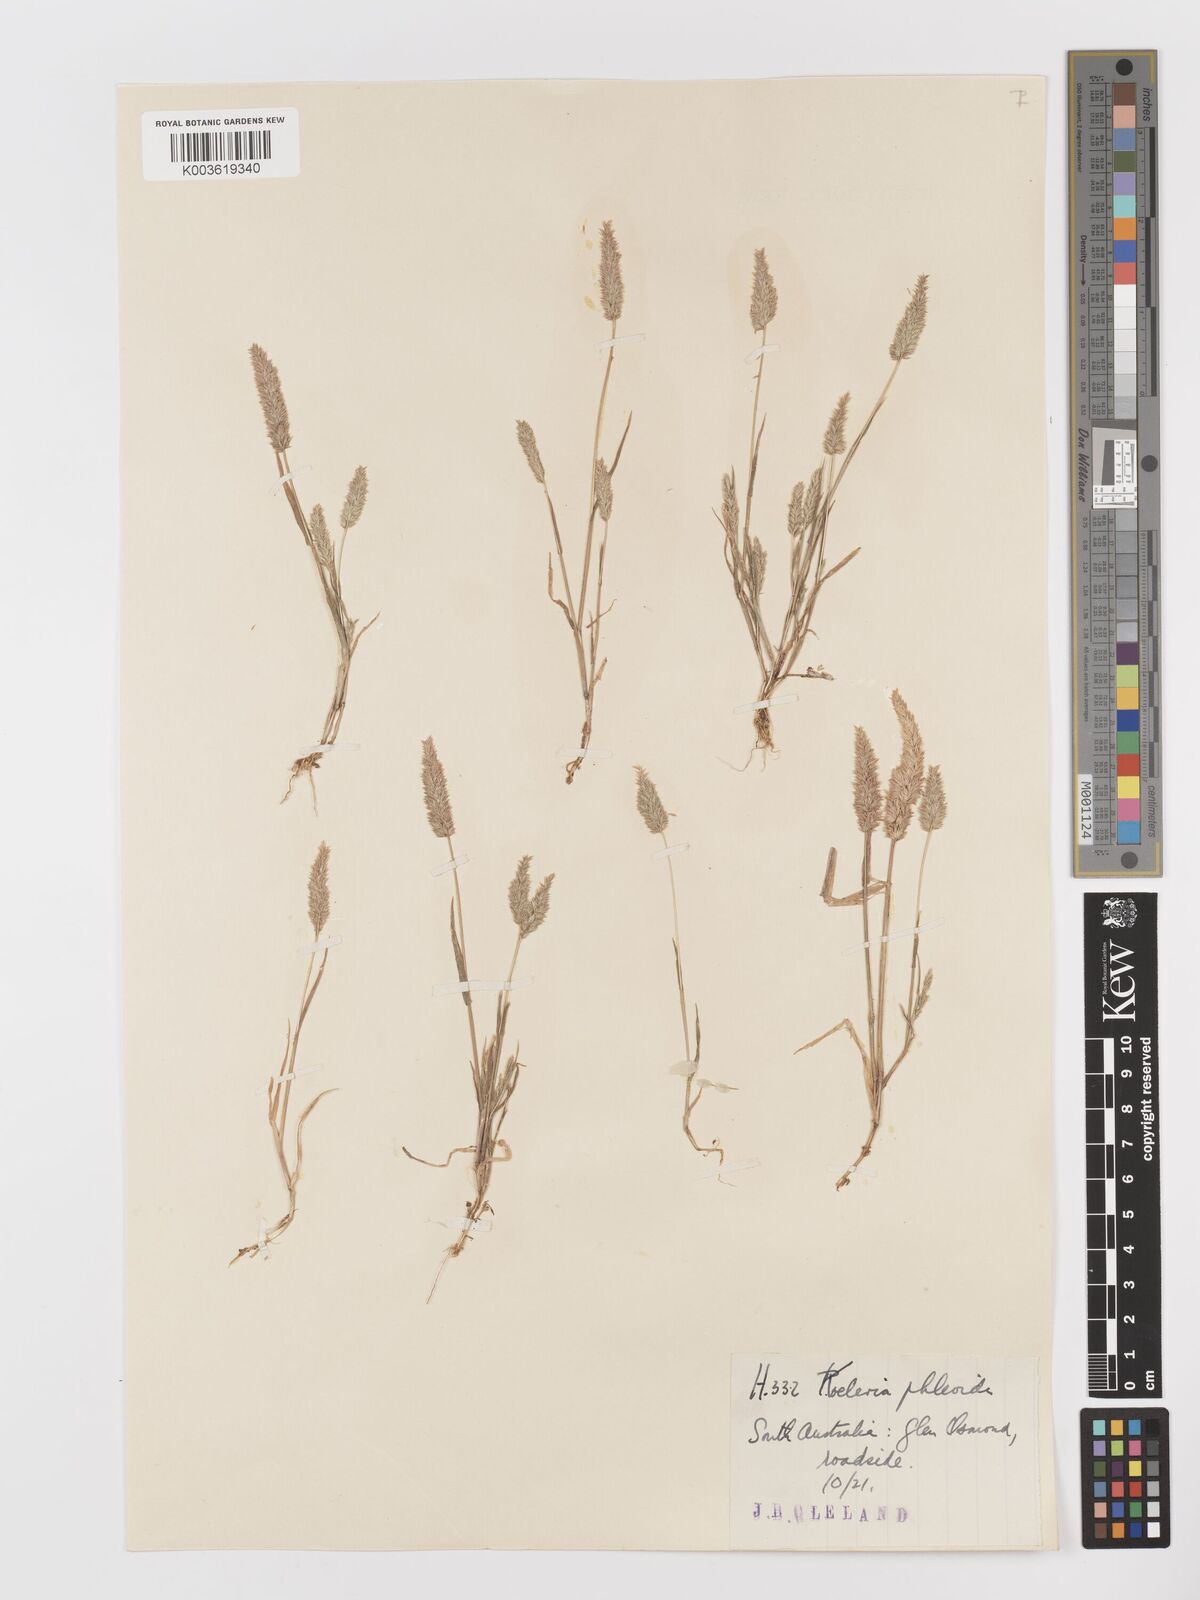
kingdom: Plantae
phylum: Tracheophyta
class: Liliopsida
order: Poales
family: Poaceae
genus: Rostraria
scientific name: Rostraria cristata
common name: Mediterranean hair-grass
